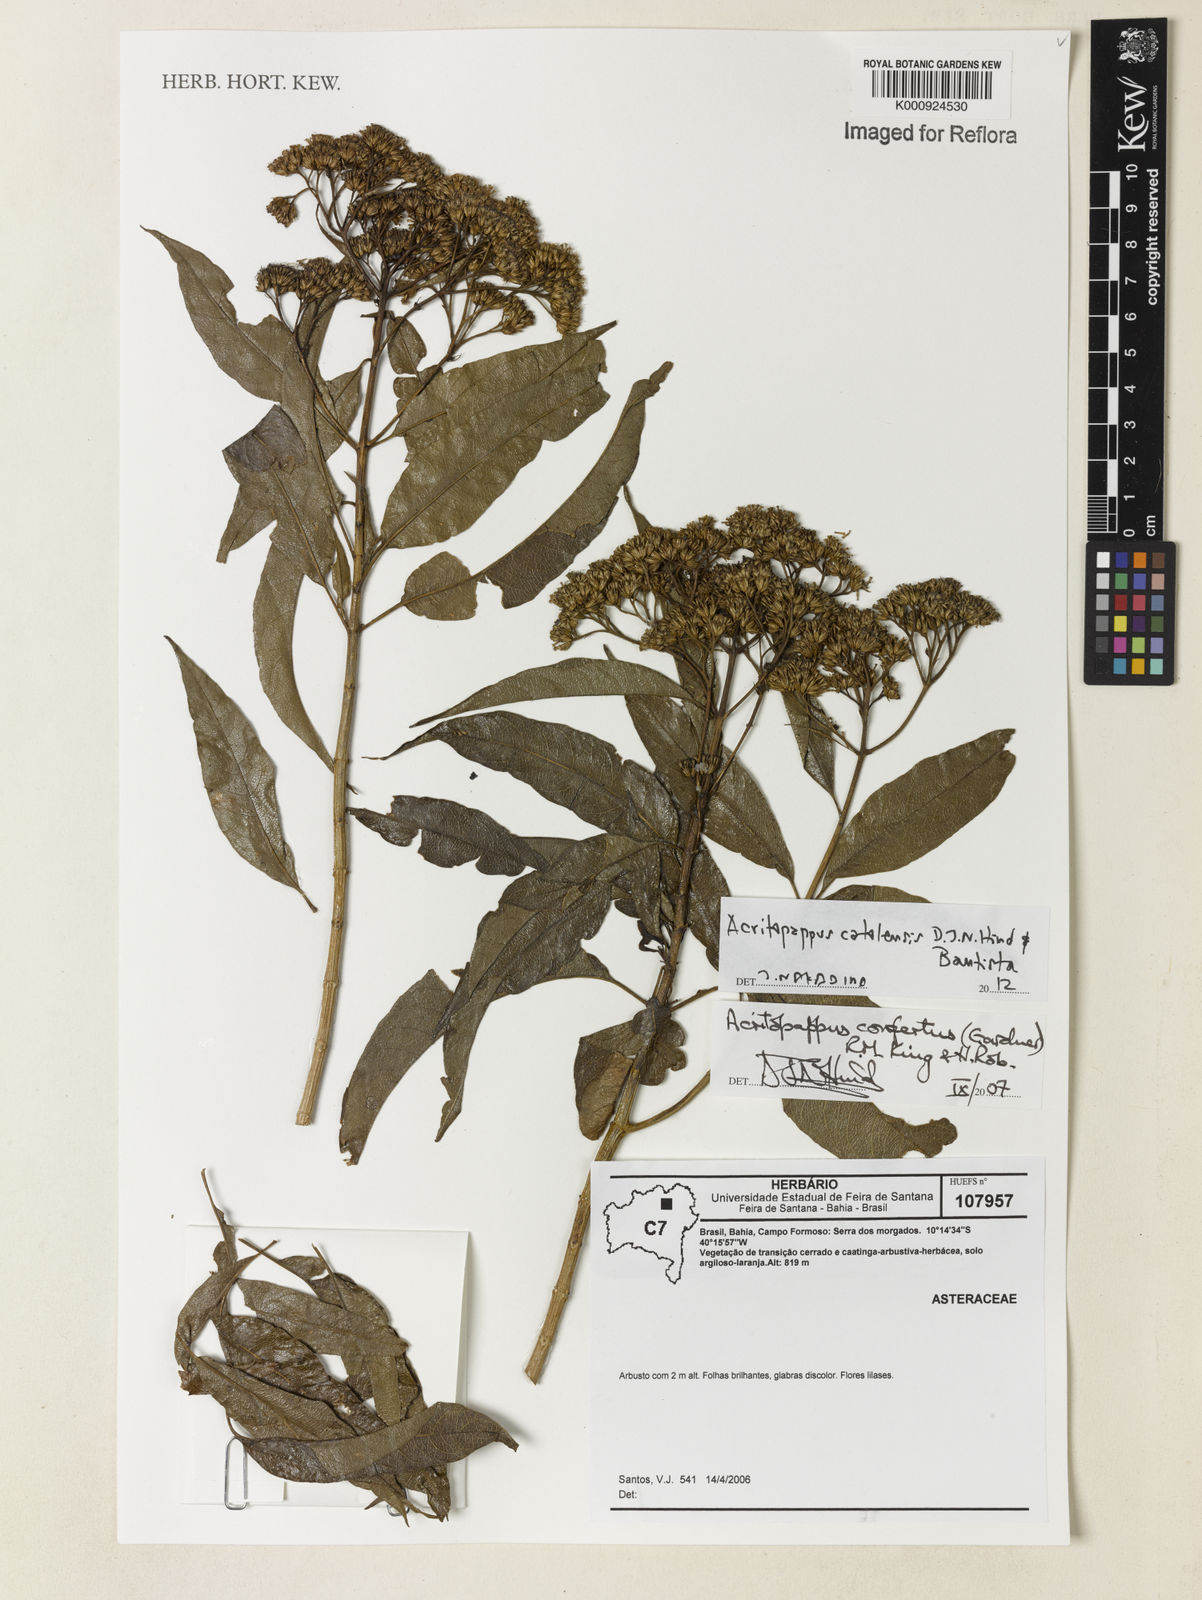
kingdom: Plantae
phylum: Tracheophyta
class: Magnoliopsida
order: Asterales
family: Asteraceae
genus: Acritopappus
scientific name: Acritopappus catolesensis
